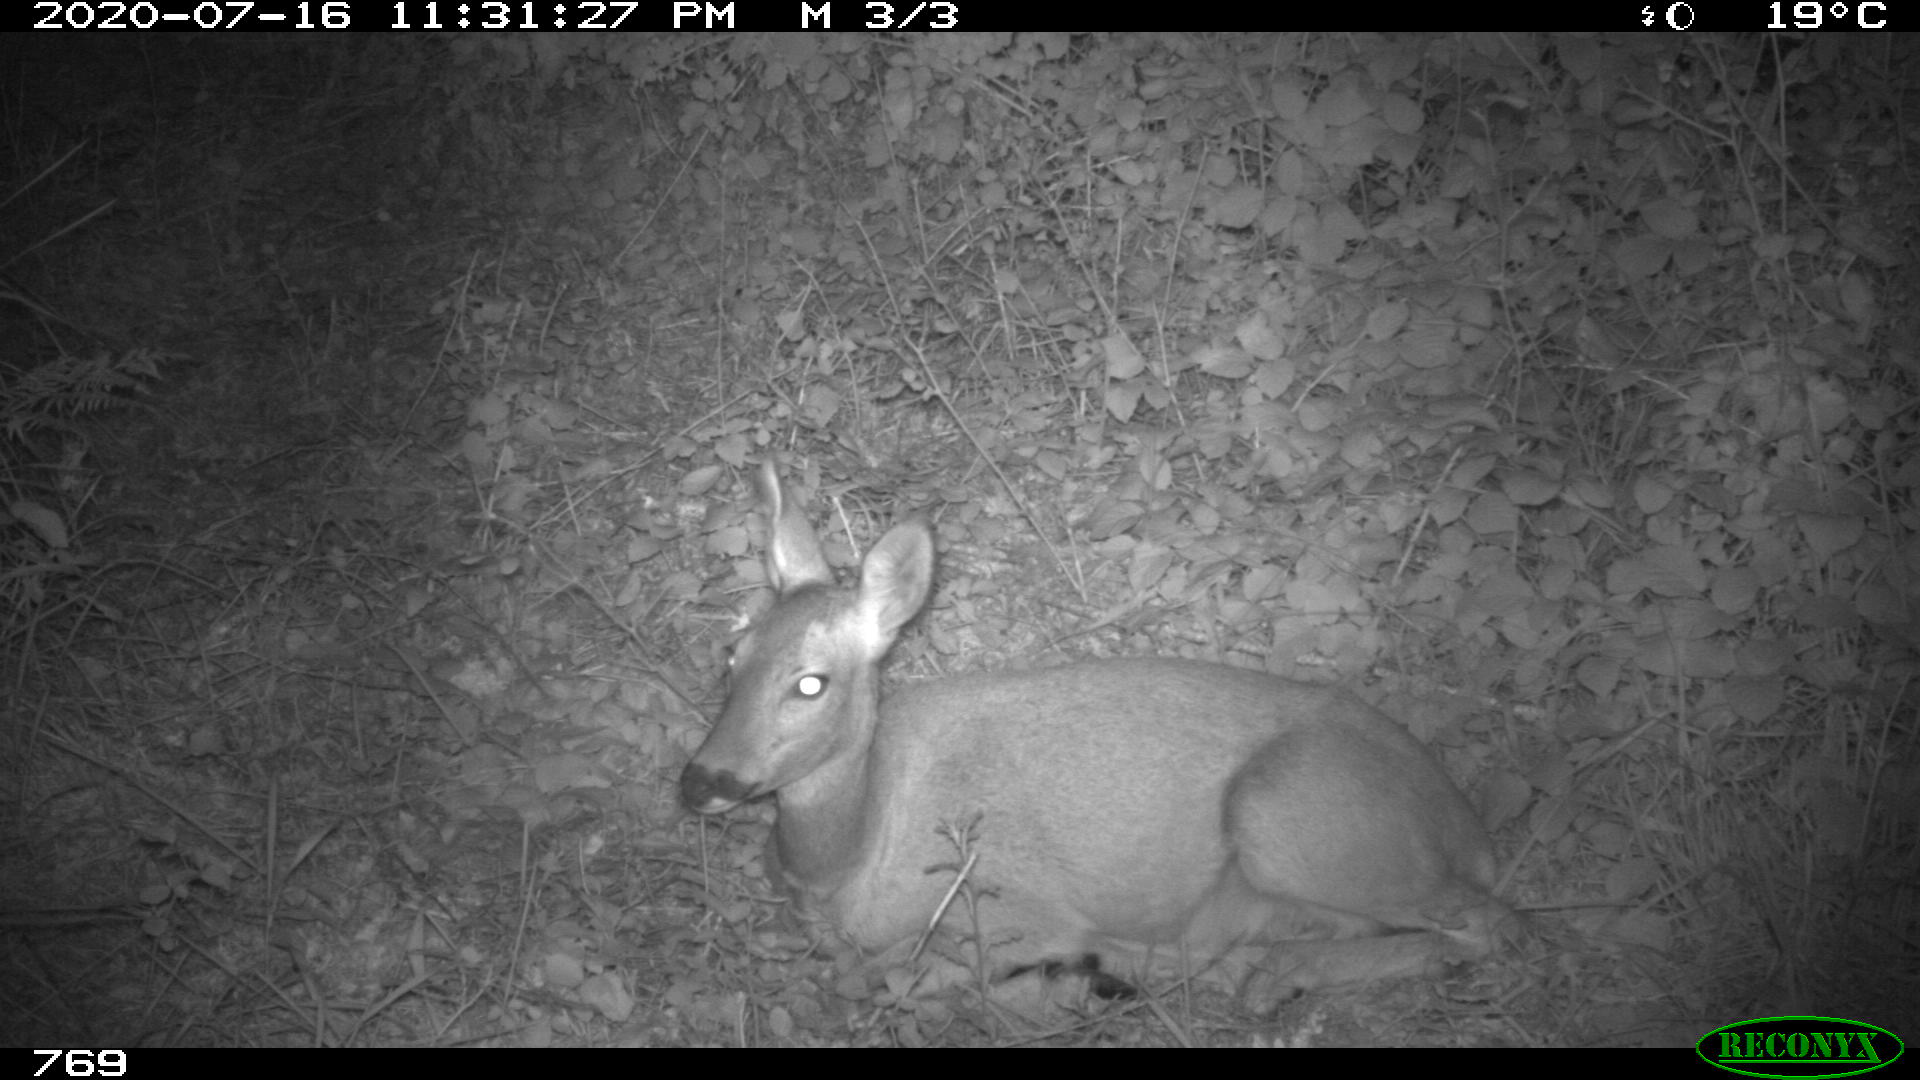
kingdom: Animalia
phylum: Chordata
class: Mammalia
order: Artiodactyla
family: Cervidae
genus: Capreolus
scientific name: Capreolus capreolus
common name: Western roe deer
